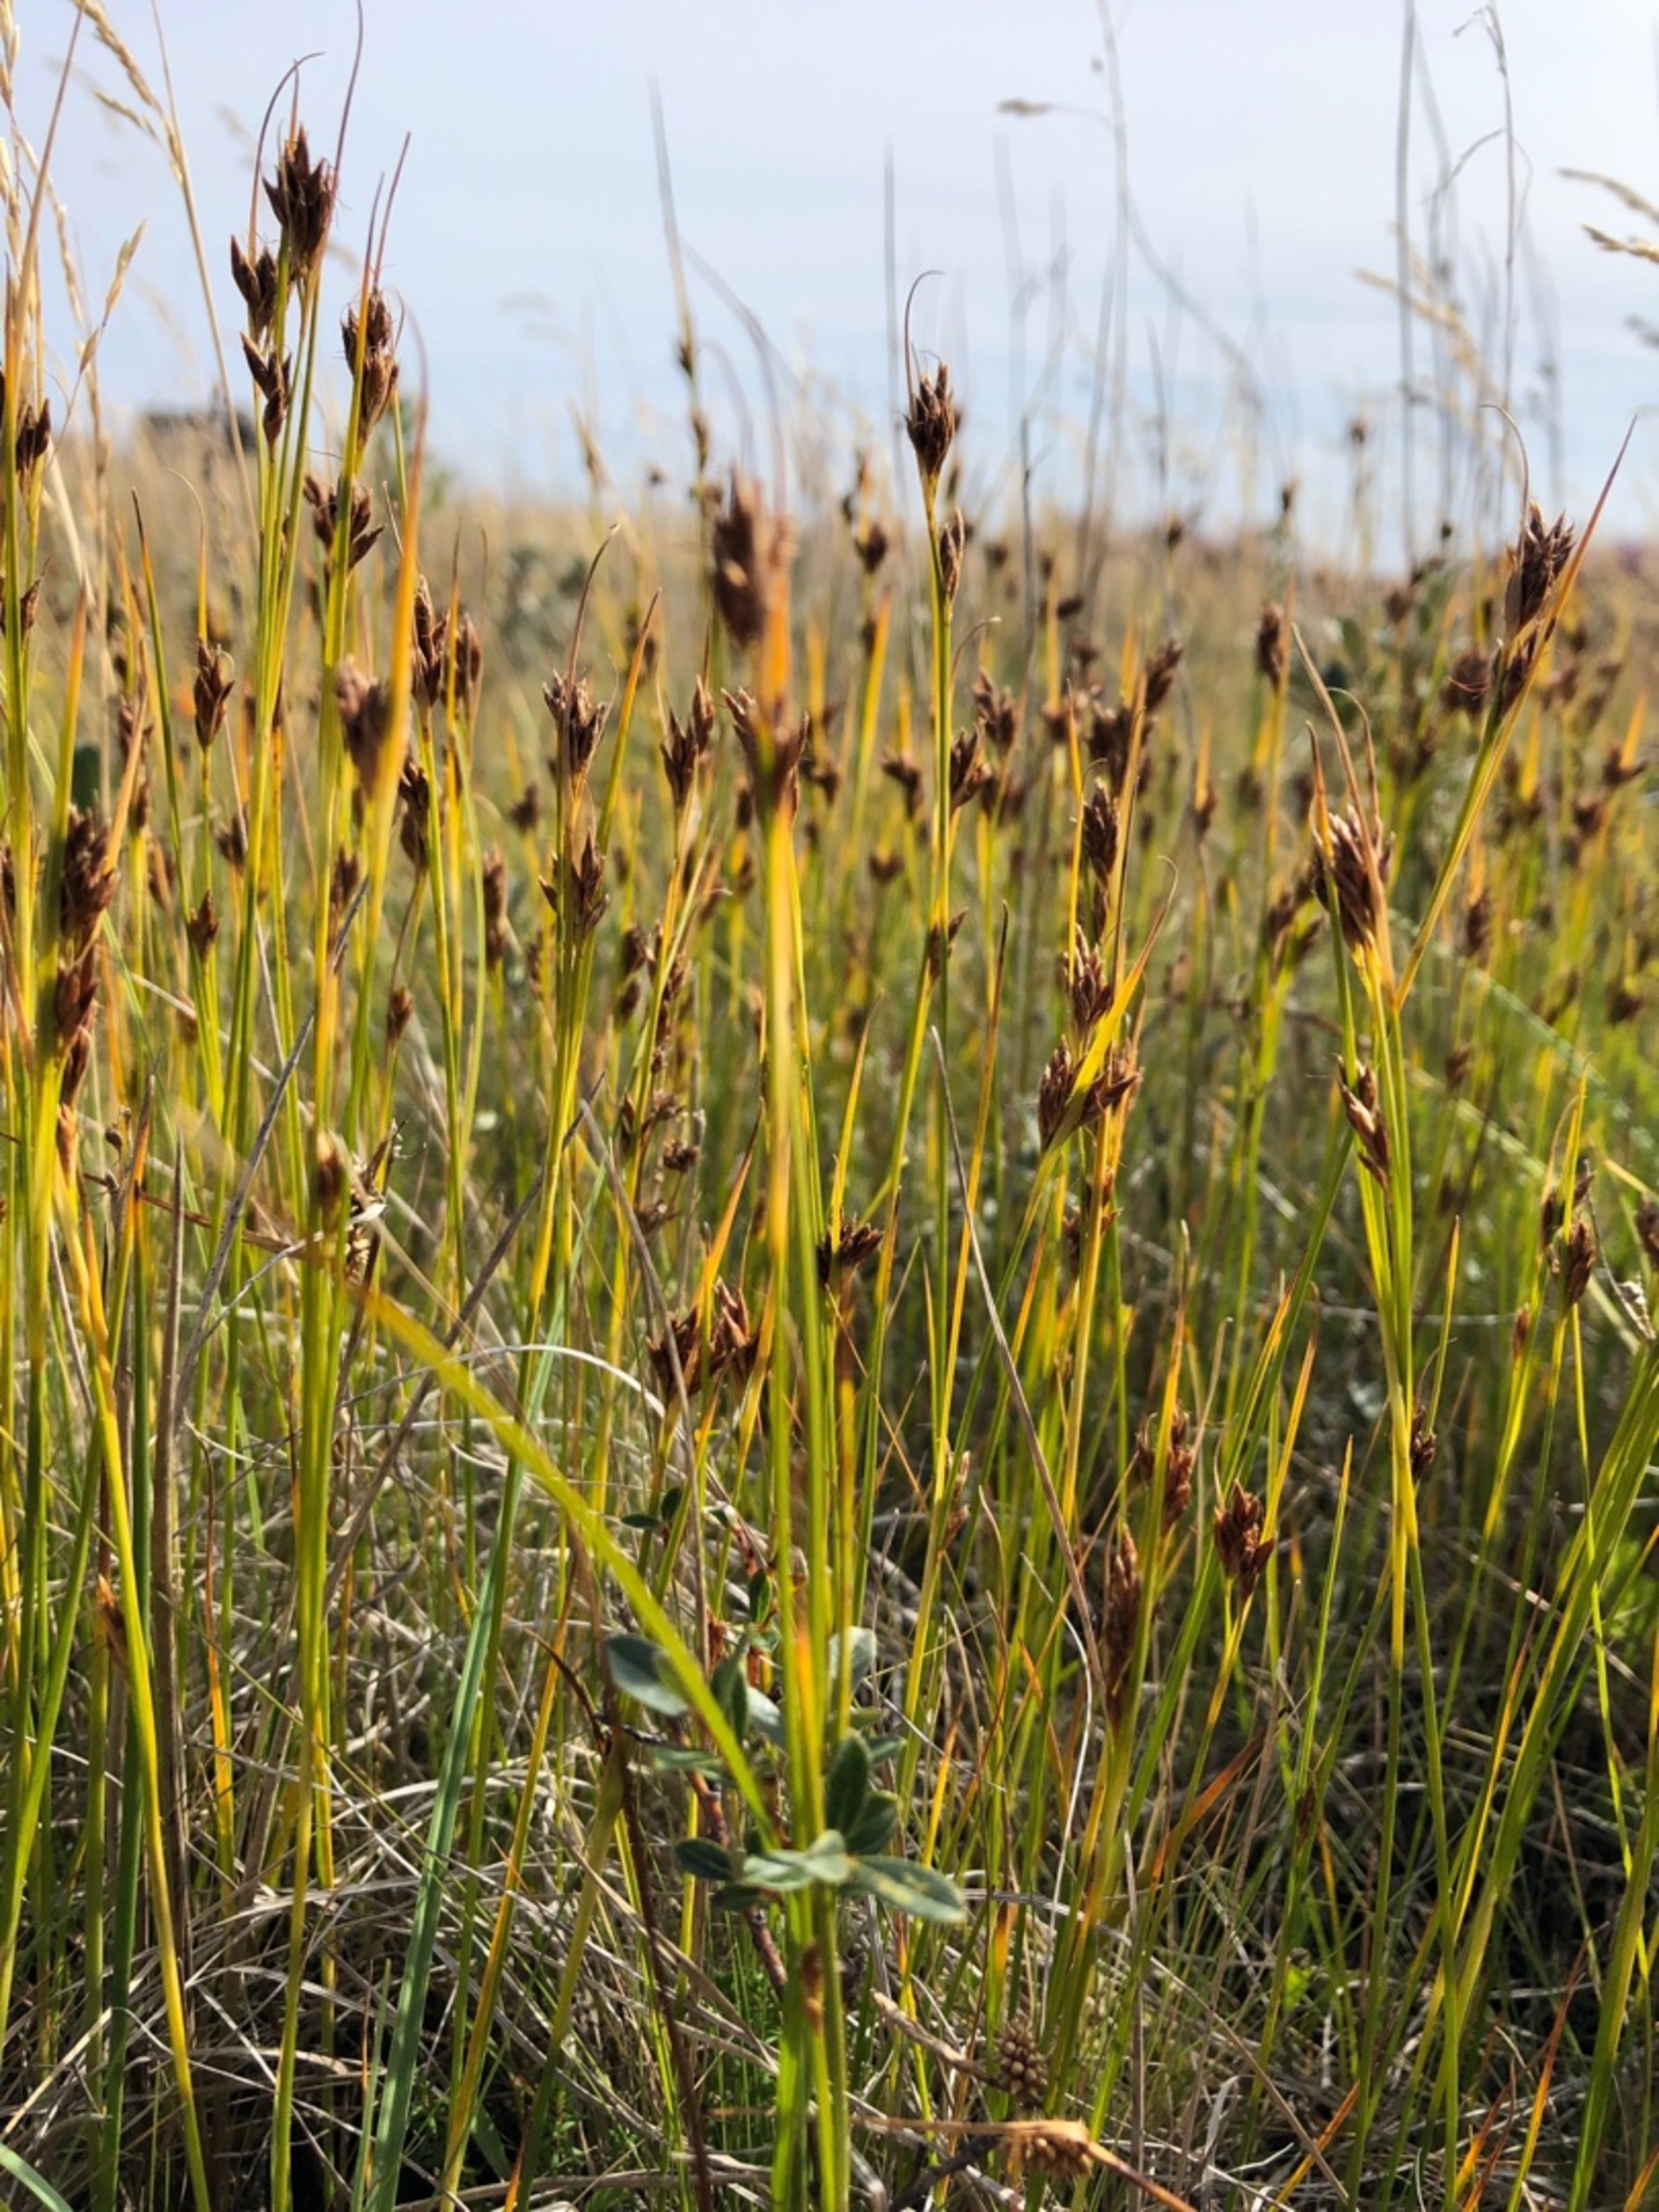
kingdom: Plantae
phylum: Tracheophyta
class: Liliopsida
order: Poales
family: Cyperaceae
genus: Rhynchospora
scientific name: Rhynchospora fusca
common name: Brun næbfrø
